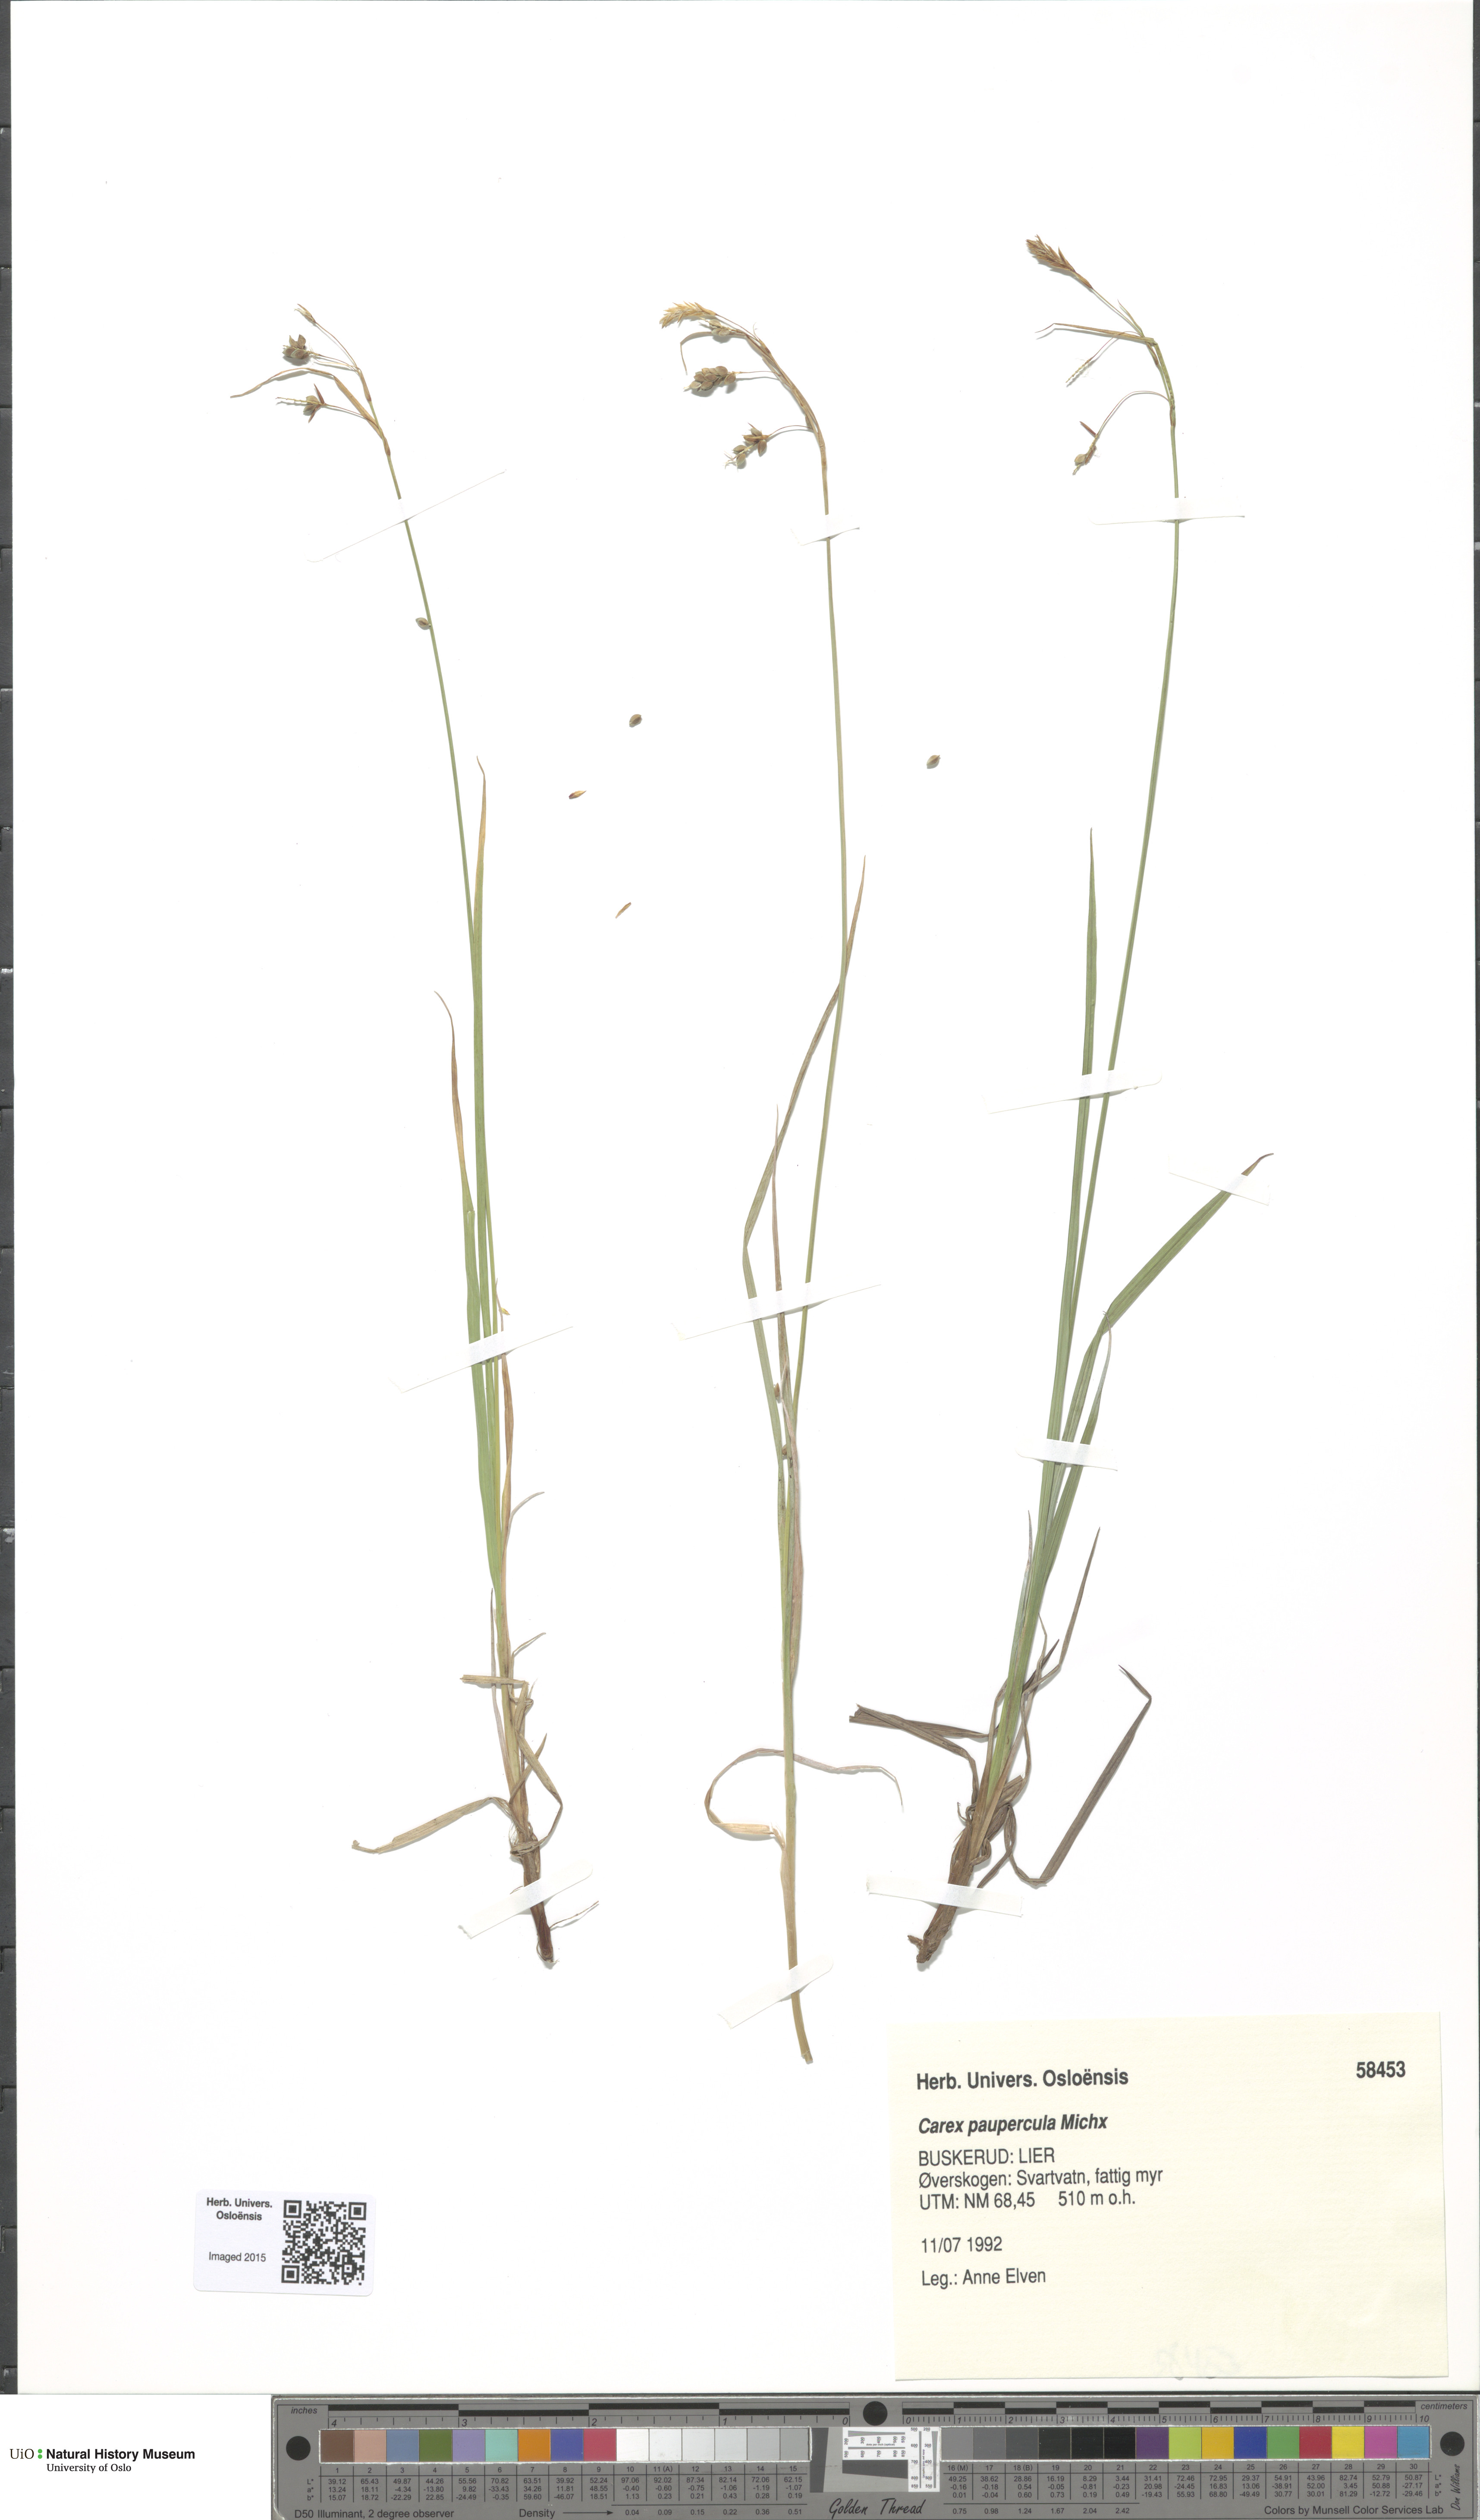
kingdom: Plantae
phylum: Tracheophyta
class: Liliopsida
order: Poales
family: Cyperaceae
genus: Carex
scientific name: Carex magellanica
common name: Bog sedge
